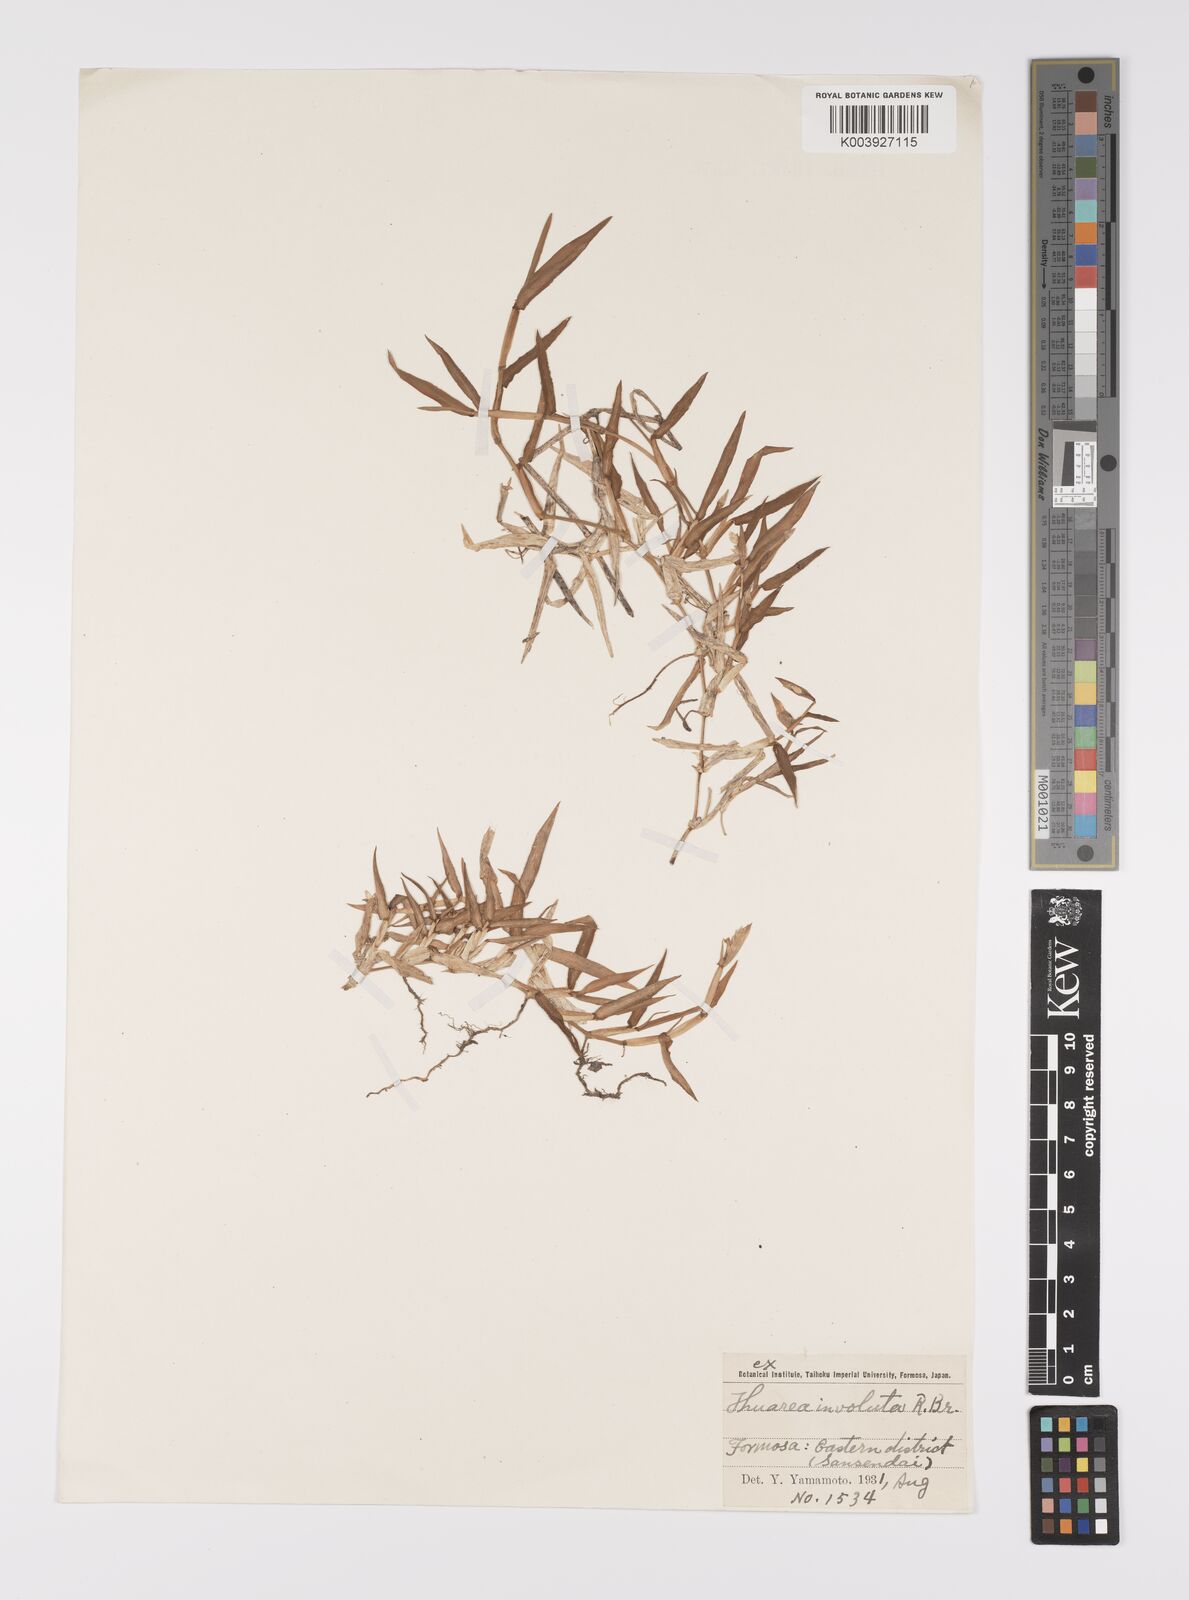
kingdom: Plantae
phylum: Tracheophyta
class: Liliopsida
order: Poales
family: Poaceae
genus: Thuarea
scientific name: Thuarea involuta
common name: Tropical beach grass
